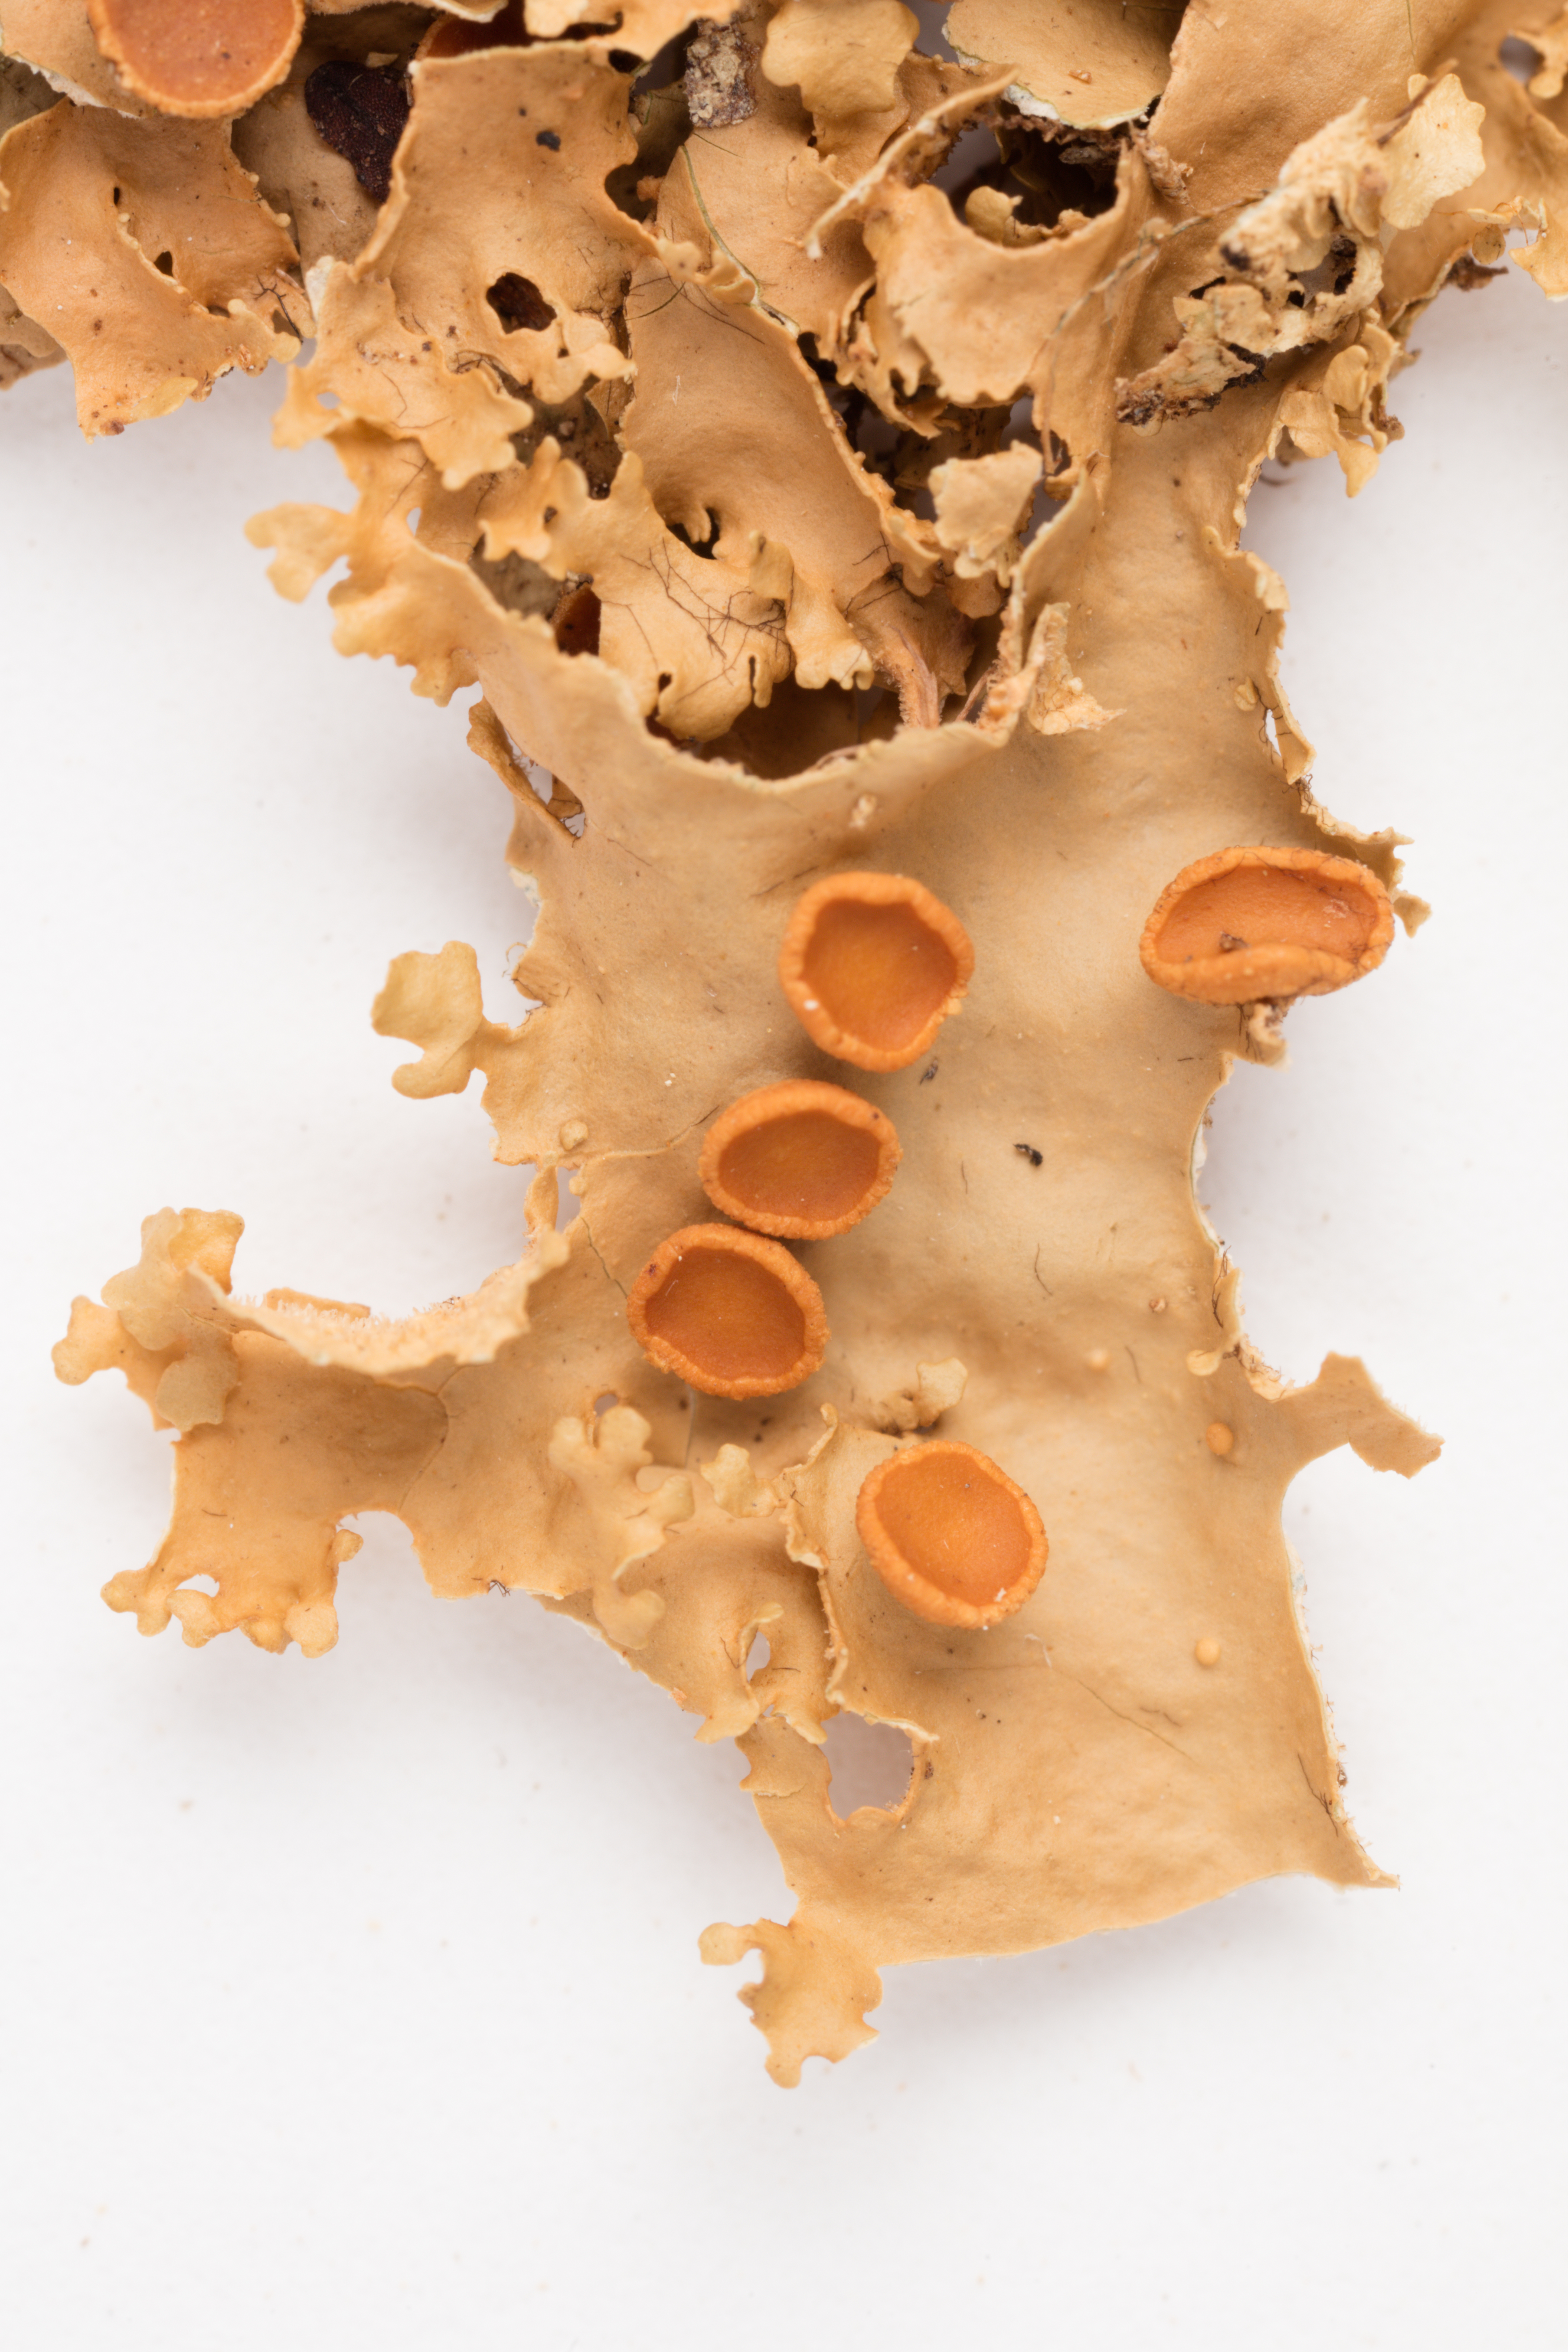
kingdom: Fungi
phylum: Ascomycota
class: Lecanoromycetes
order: Peltigerales
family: Lobariaceae
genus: Sticta
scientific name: Sticta martinii
